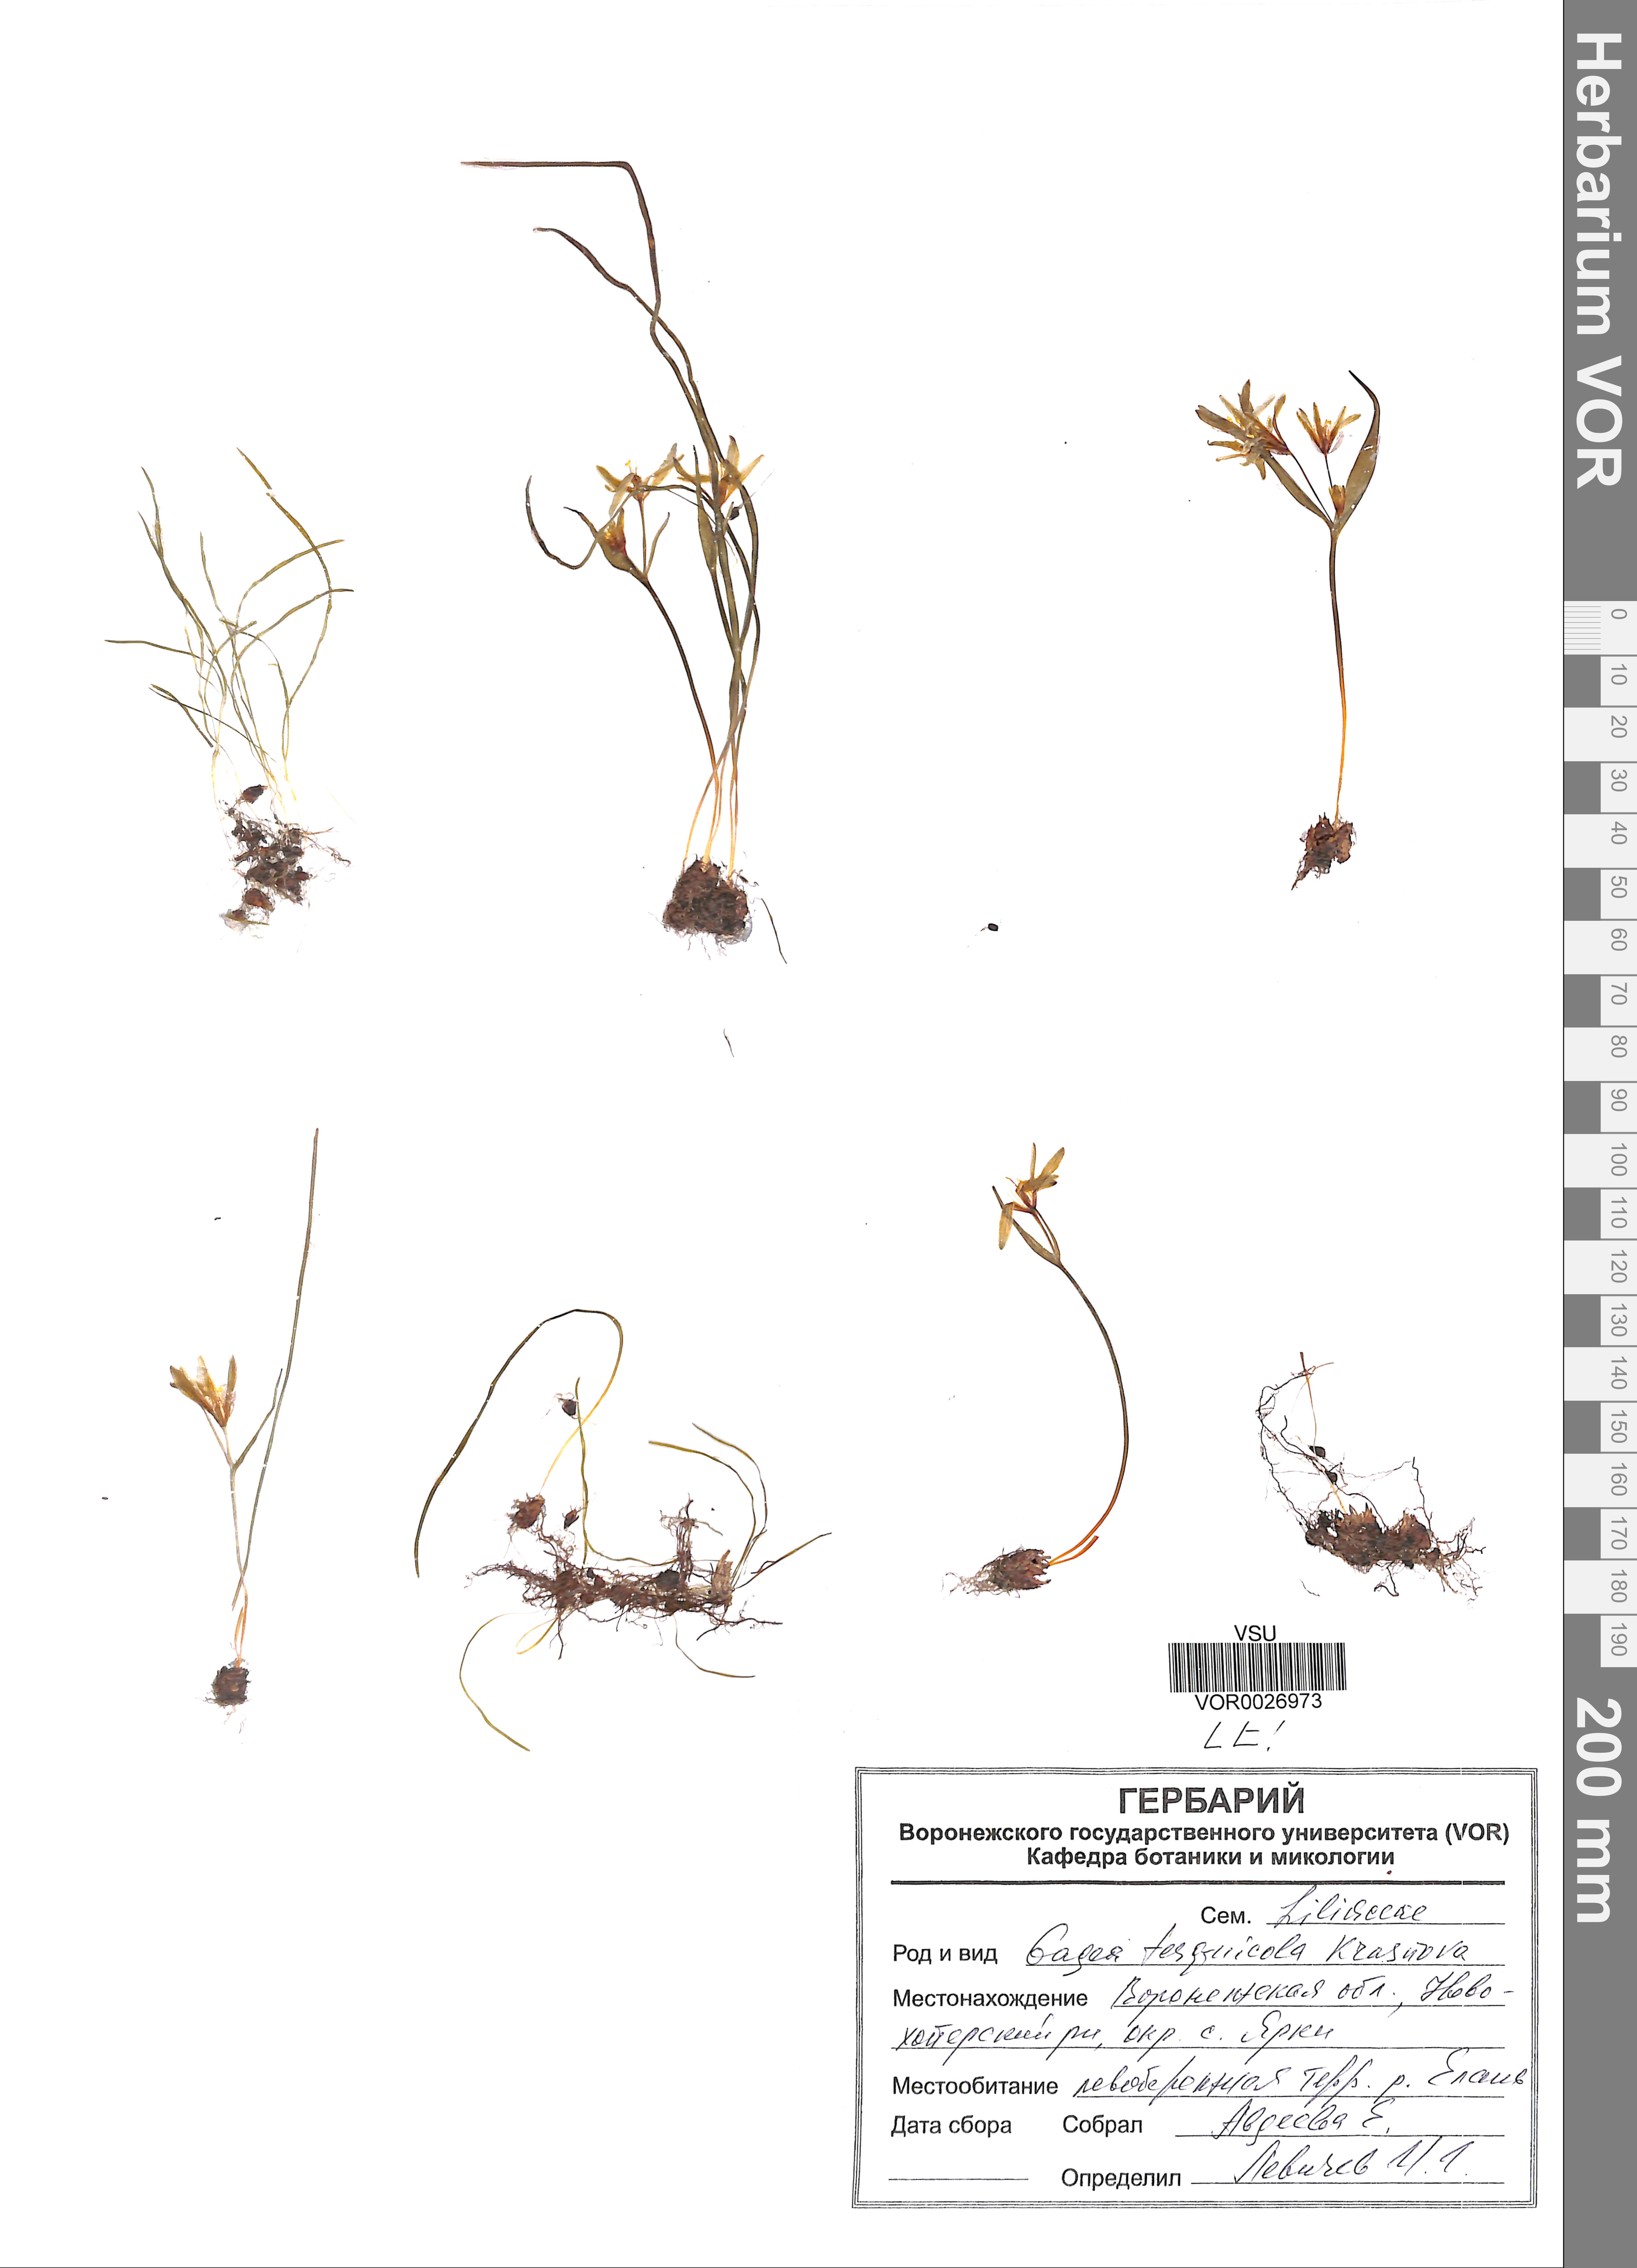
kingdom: Plantae
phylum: Tracheophyta
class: Liliopsida
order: Liliales
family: Liliaceae
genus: Gagea
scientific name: Gagea tesquicola
